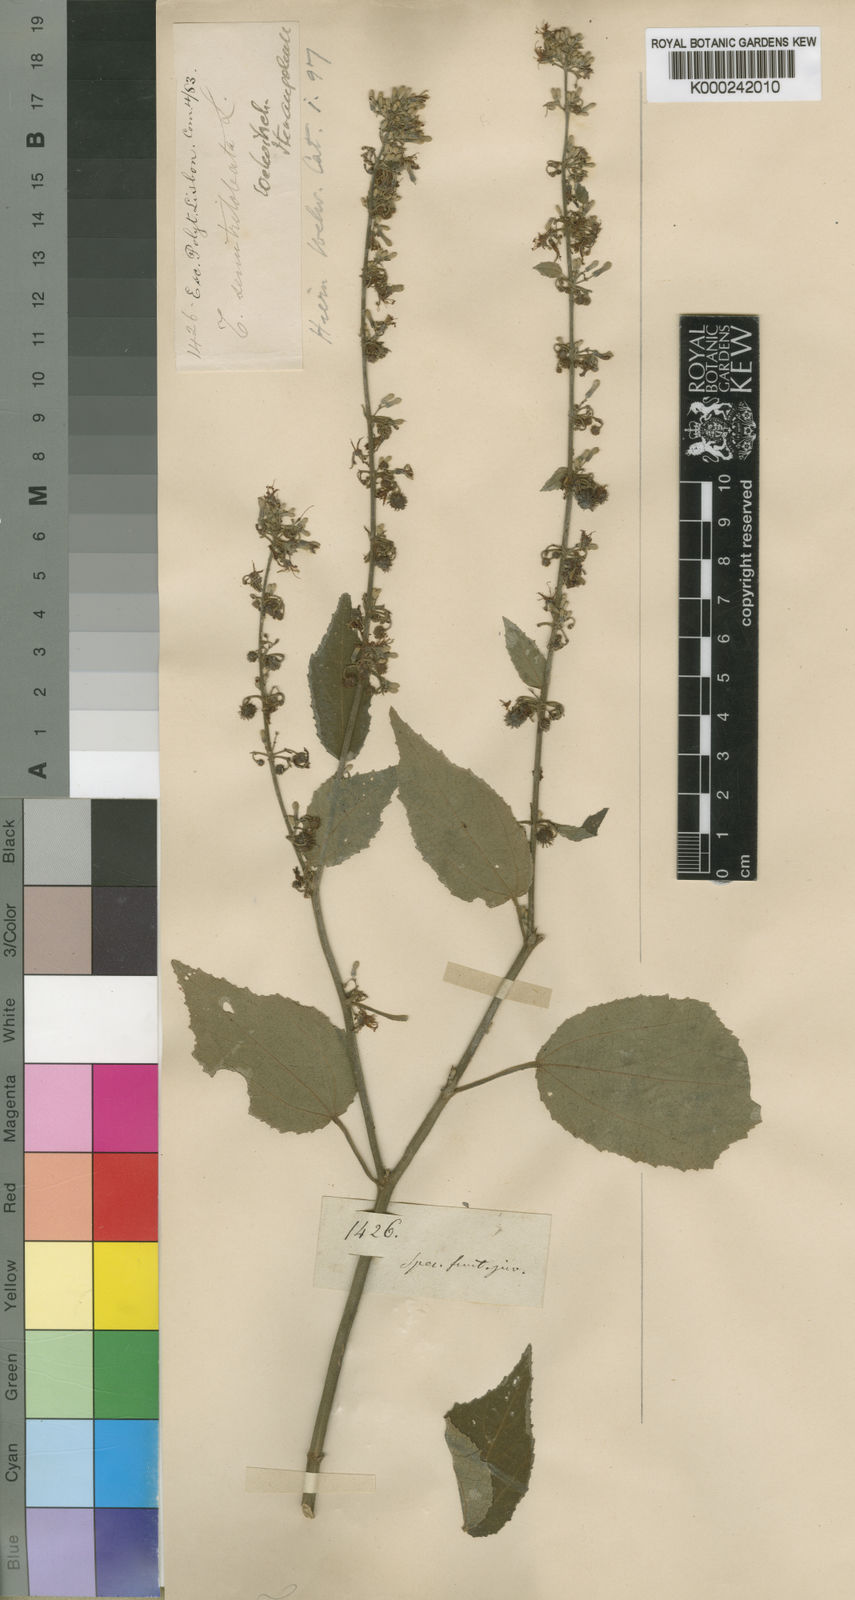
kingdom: Plantae
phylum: Tracheophyta
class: Magnoliopsida
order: Malvales
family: Malvaceae
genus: Triumfetta
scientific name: Triumfetta cordifolia
